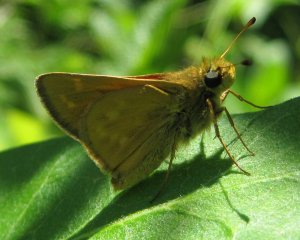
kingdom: Animalia
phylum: Arthropoda
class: Insecta
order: Lepidoptera
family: Hesperiidae
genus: Hesperia
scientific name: Hesperia sassacus
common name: Sassacus Skipper
